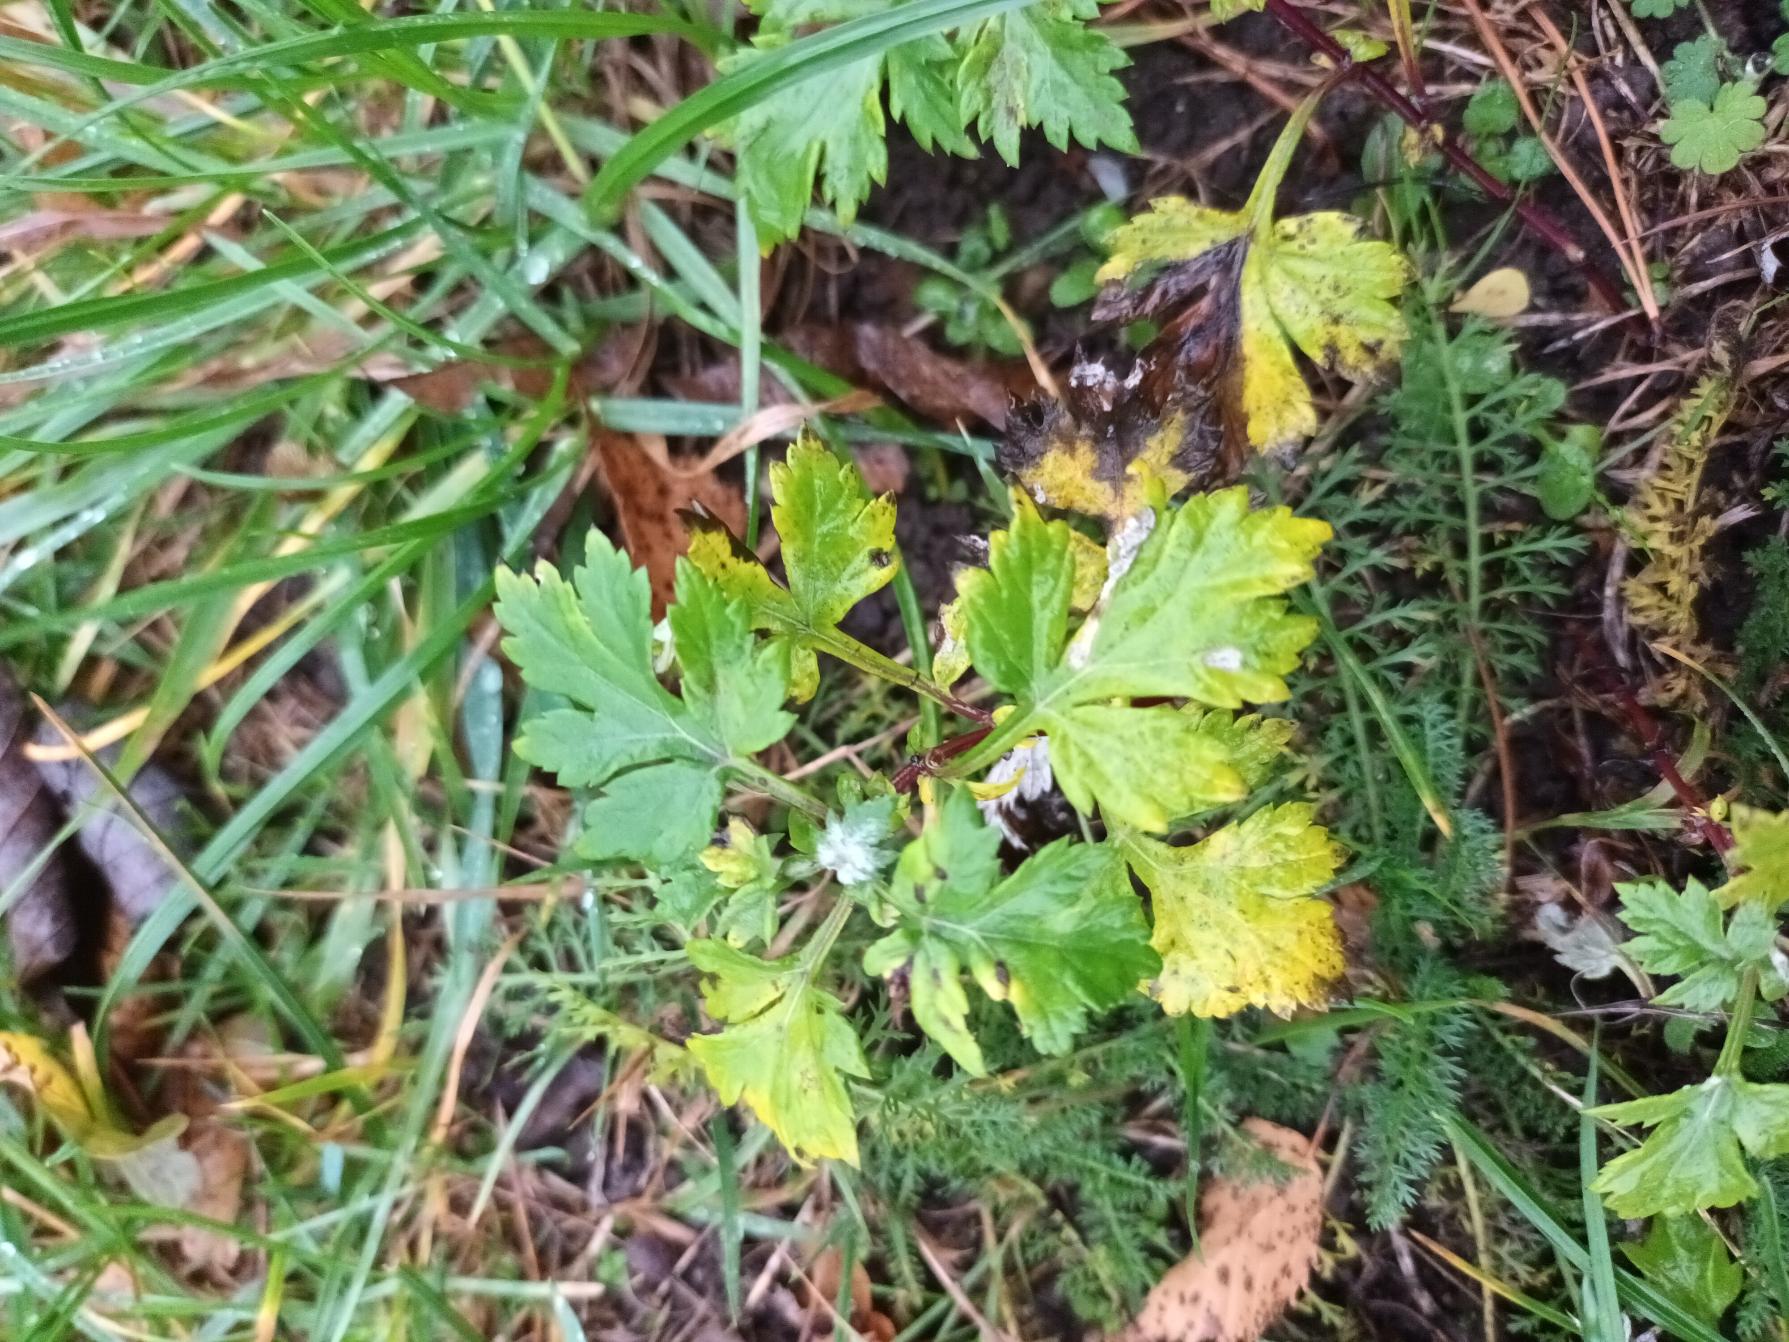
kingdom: Plantae
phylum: Tracheophyta
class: Magnoliopsida
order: Asterales
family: Asteraceae
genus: Artemisia
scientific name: Artemisia vulgaris
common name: Grå-bynke
